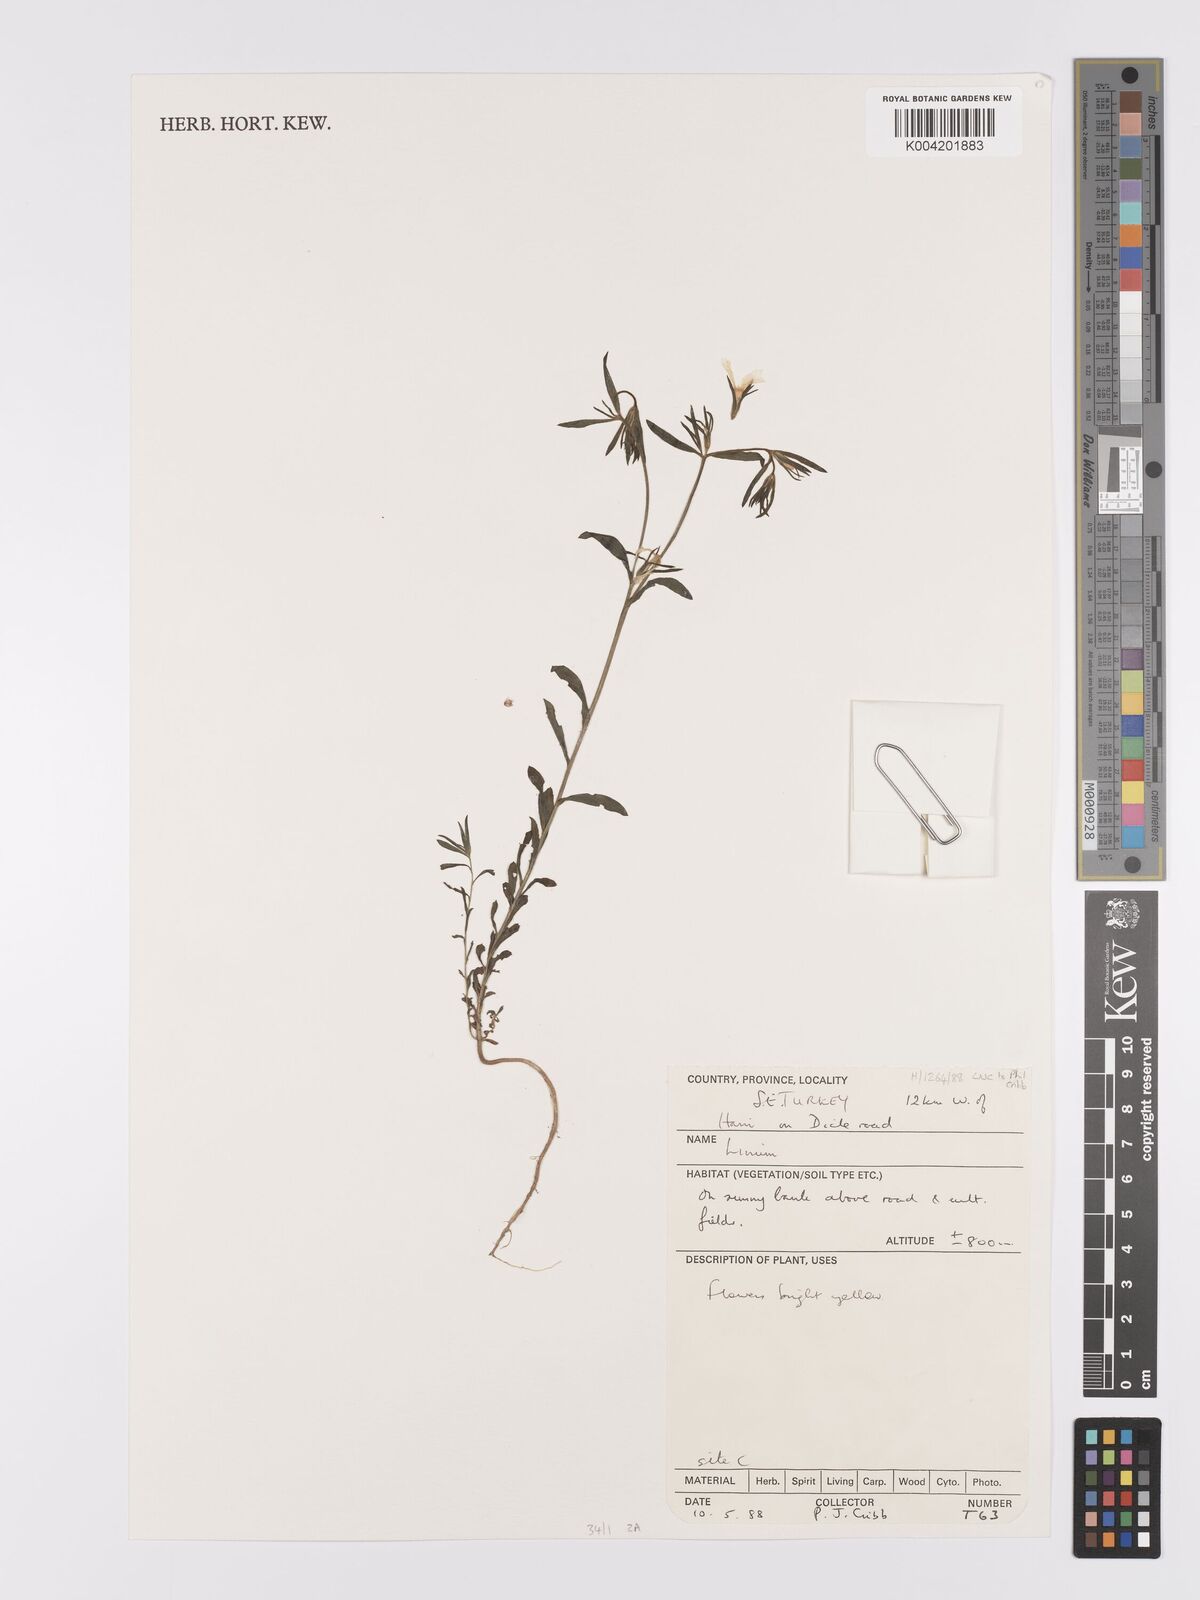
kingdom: Plantae
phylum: Tracheophyta
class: Magnoliopsida
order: Malpighiales
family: Linaceae
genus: Linum
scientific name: Linum
